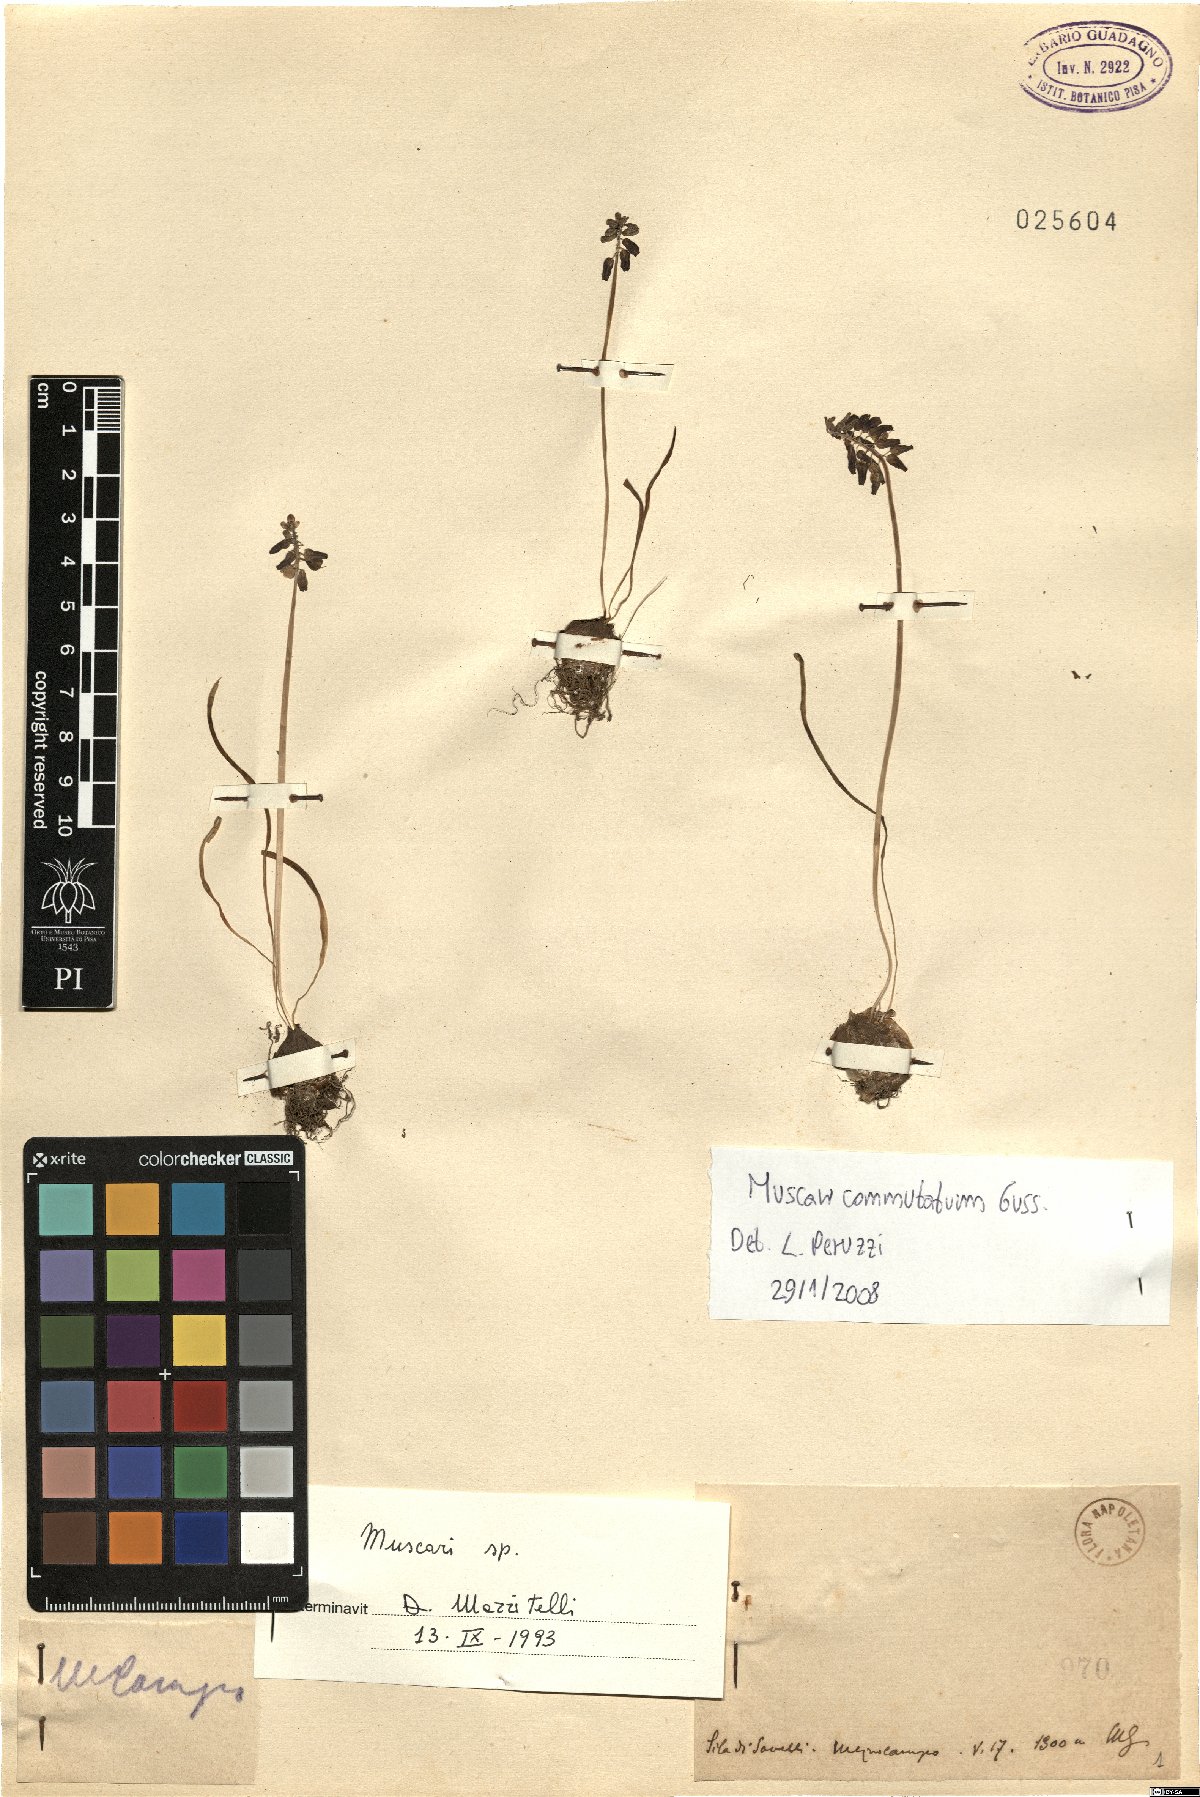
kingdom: Plantae
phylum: Tracheophyta
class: Liliopsida
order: Asparagales
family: Asparagaceae
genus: Muscari
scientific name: Muscari commutatum
